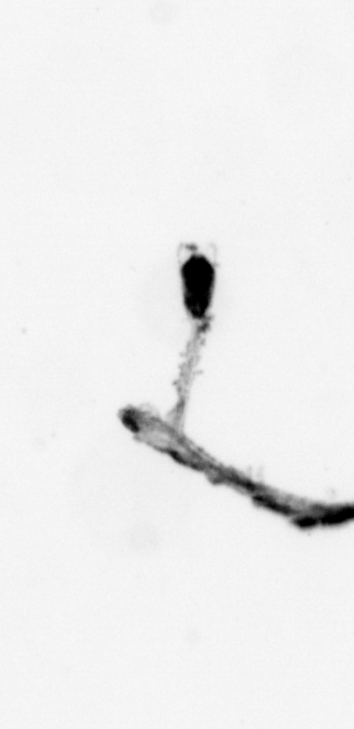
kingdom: Animalia
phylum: Cnidaria
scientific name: Cnidaria
